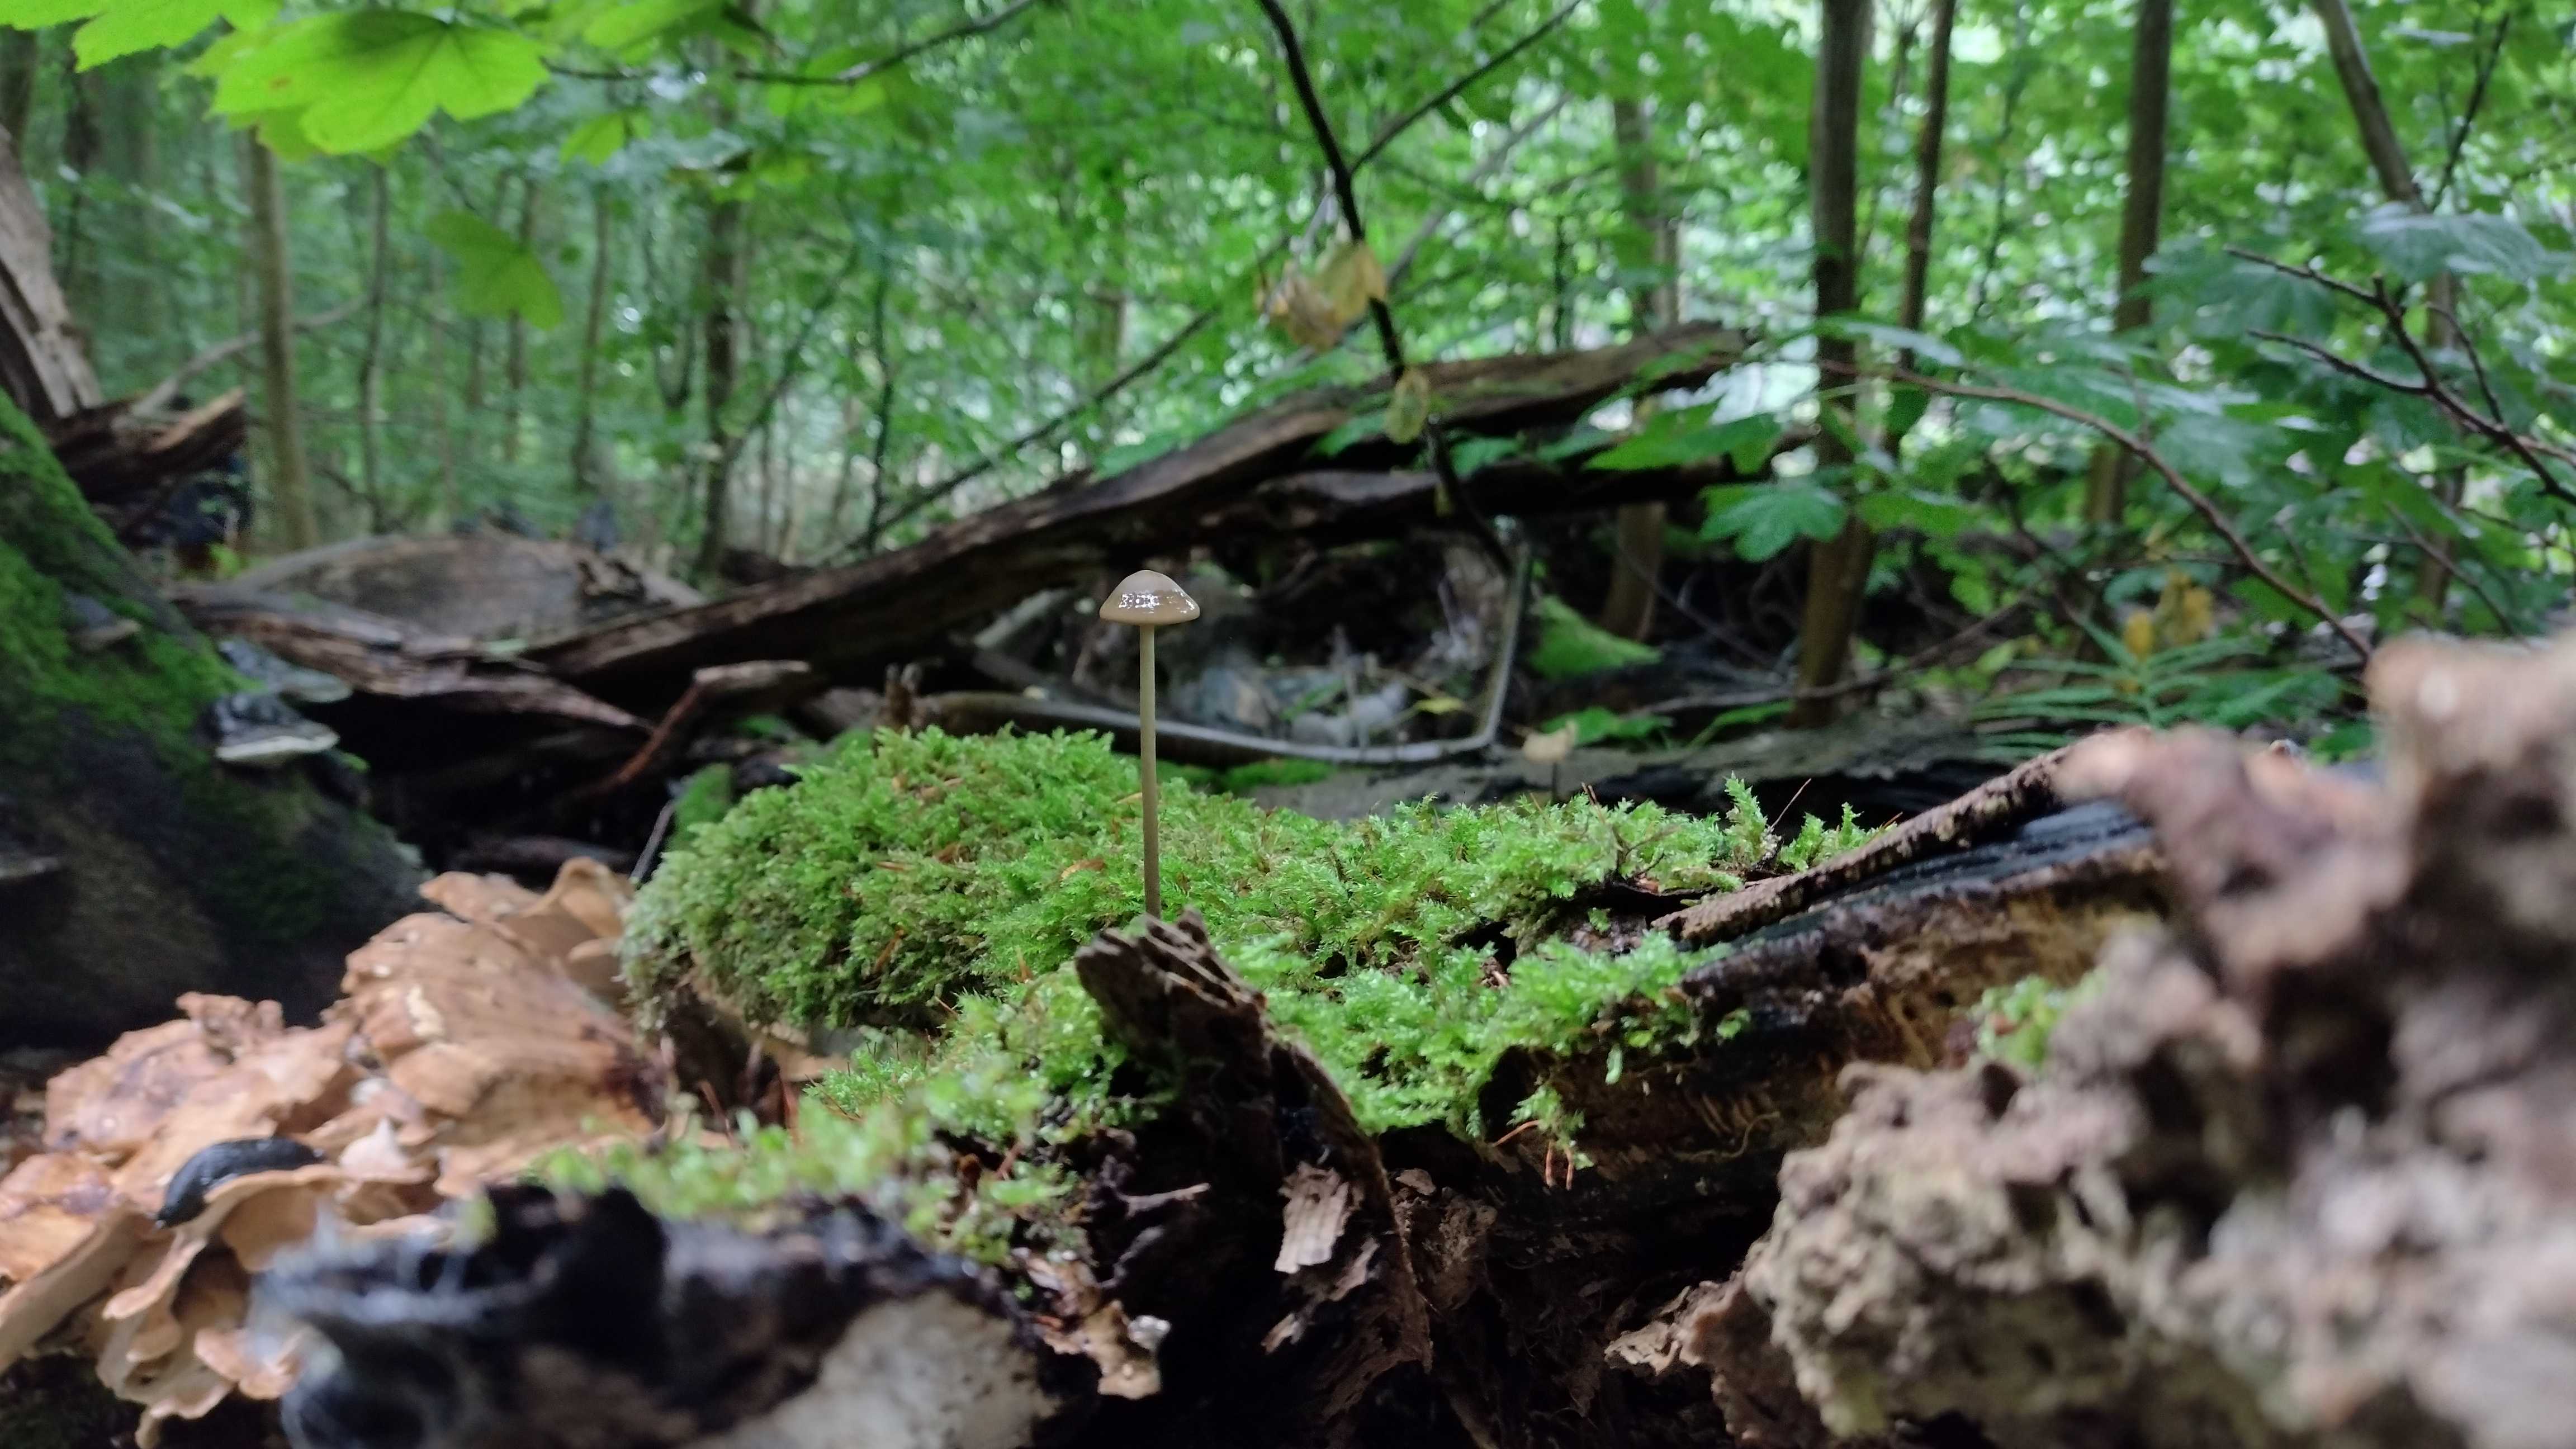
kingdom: Fungi
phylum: Basidiomycota
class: Agaricomycetes
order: Agaricales
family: Omphalotaceae
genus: Mycetinis
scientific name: Mycetinis alliaceus
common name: stor løghat
